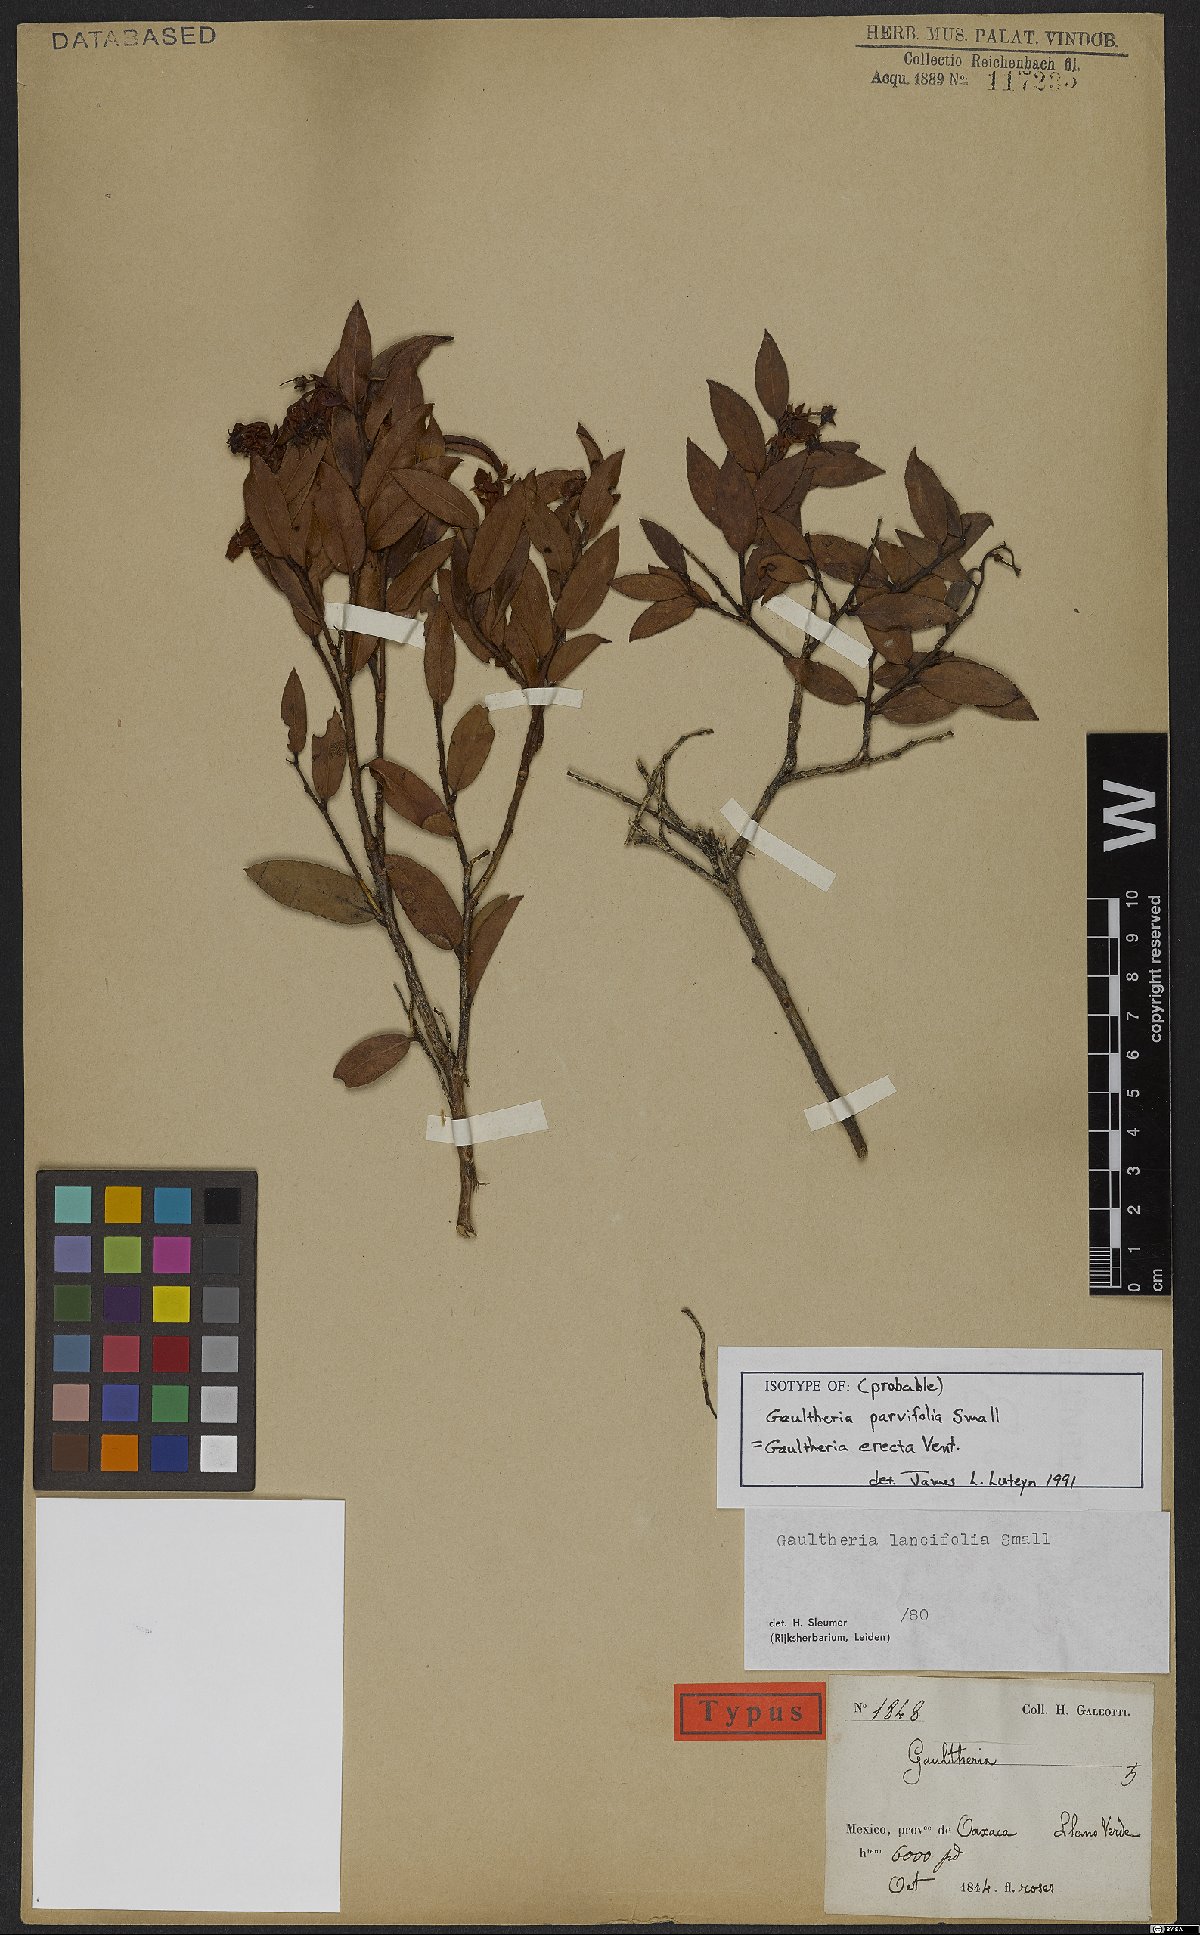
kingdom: Plantae
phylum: Tracheophyta
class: Magnoliopsida
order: Ericales
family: Ericaceae
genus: Gaultheria
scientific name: Gaultheria erecta
